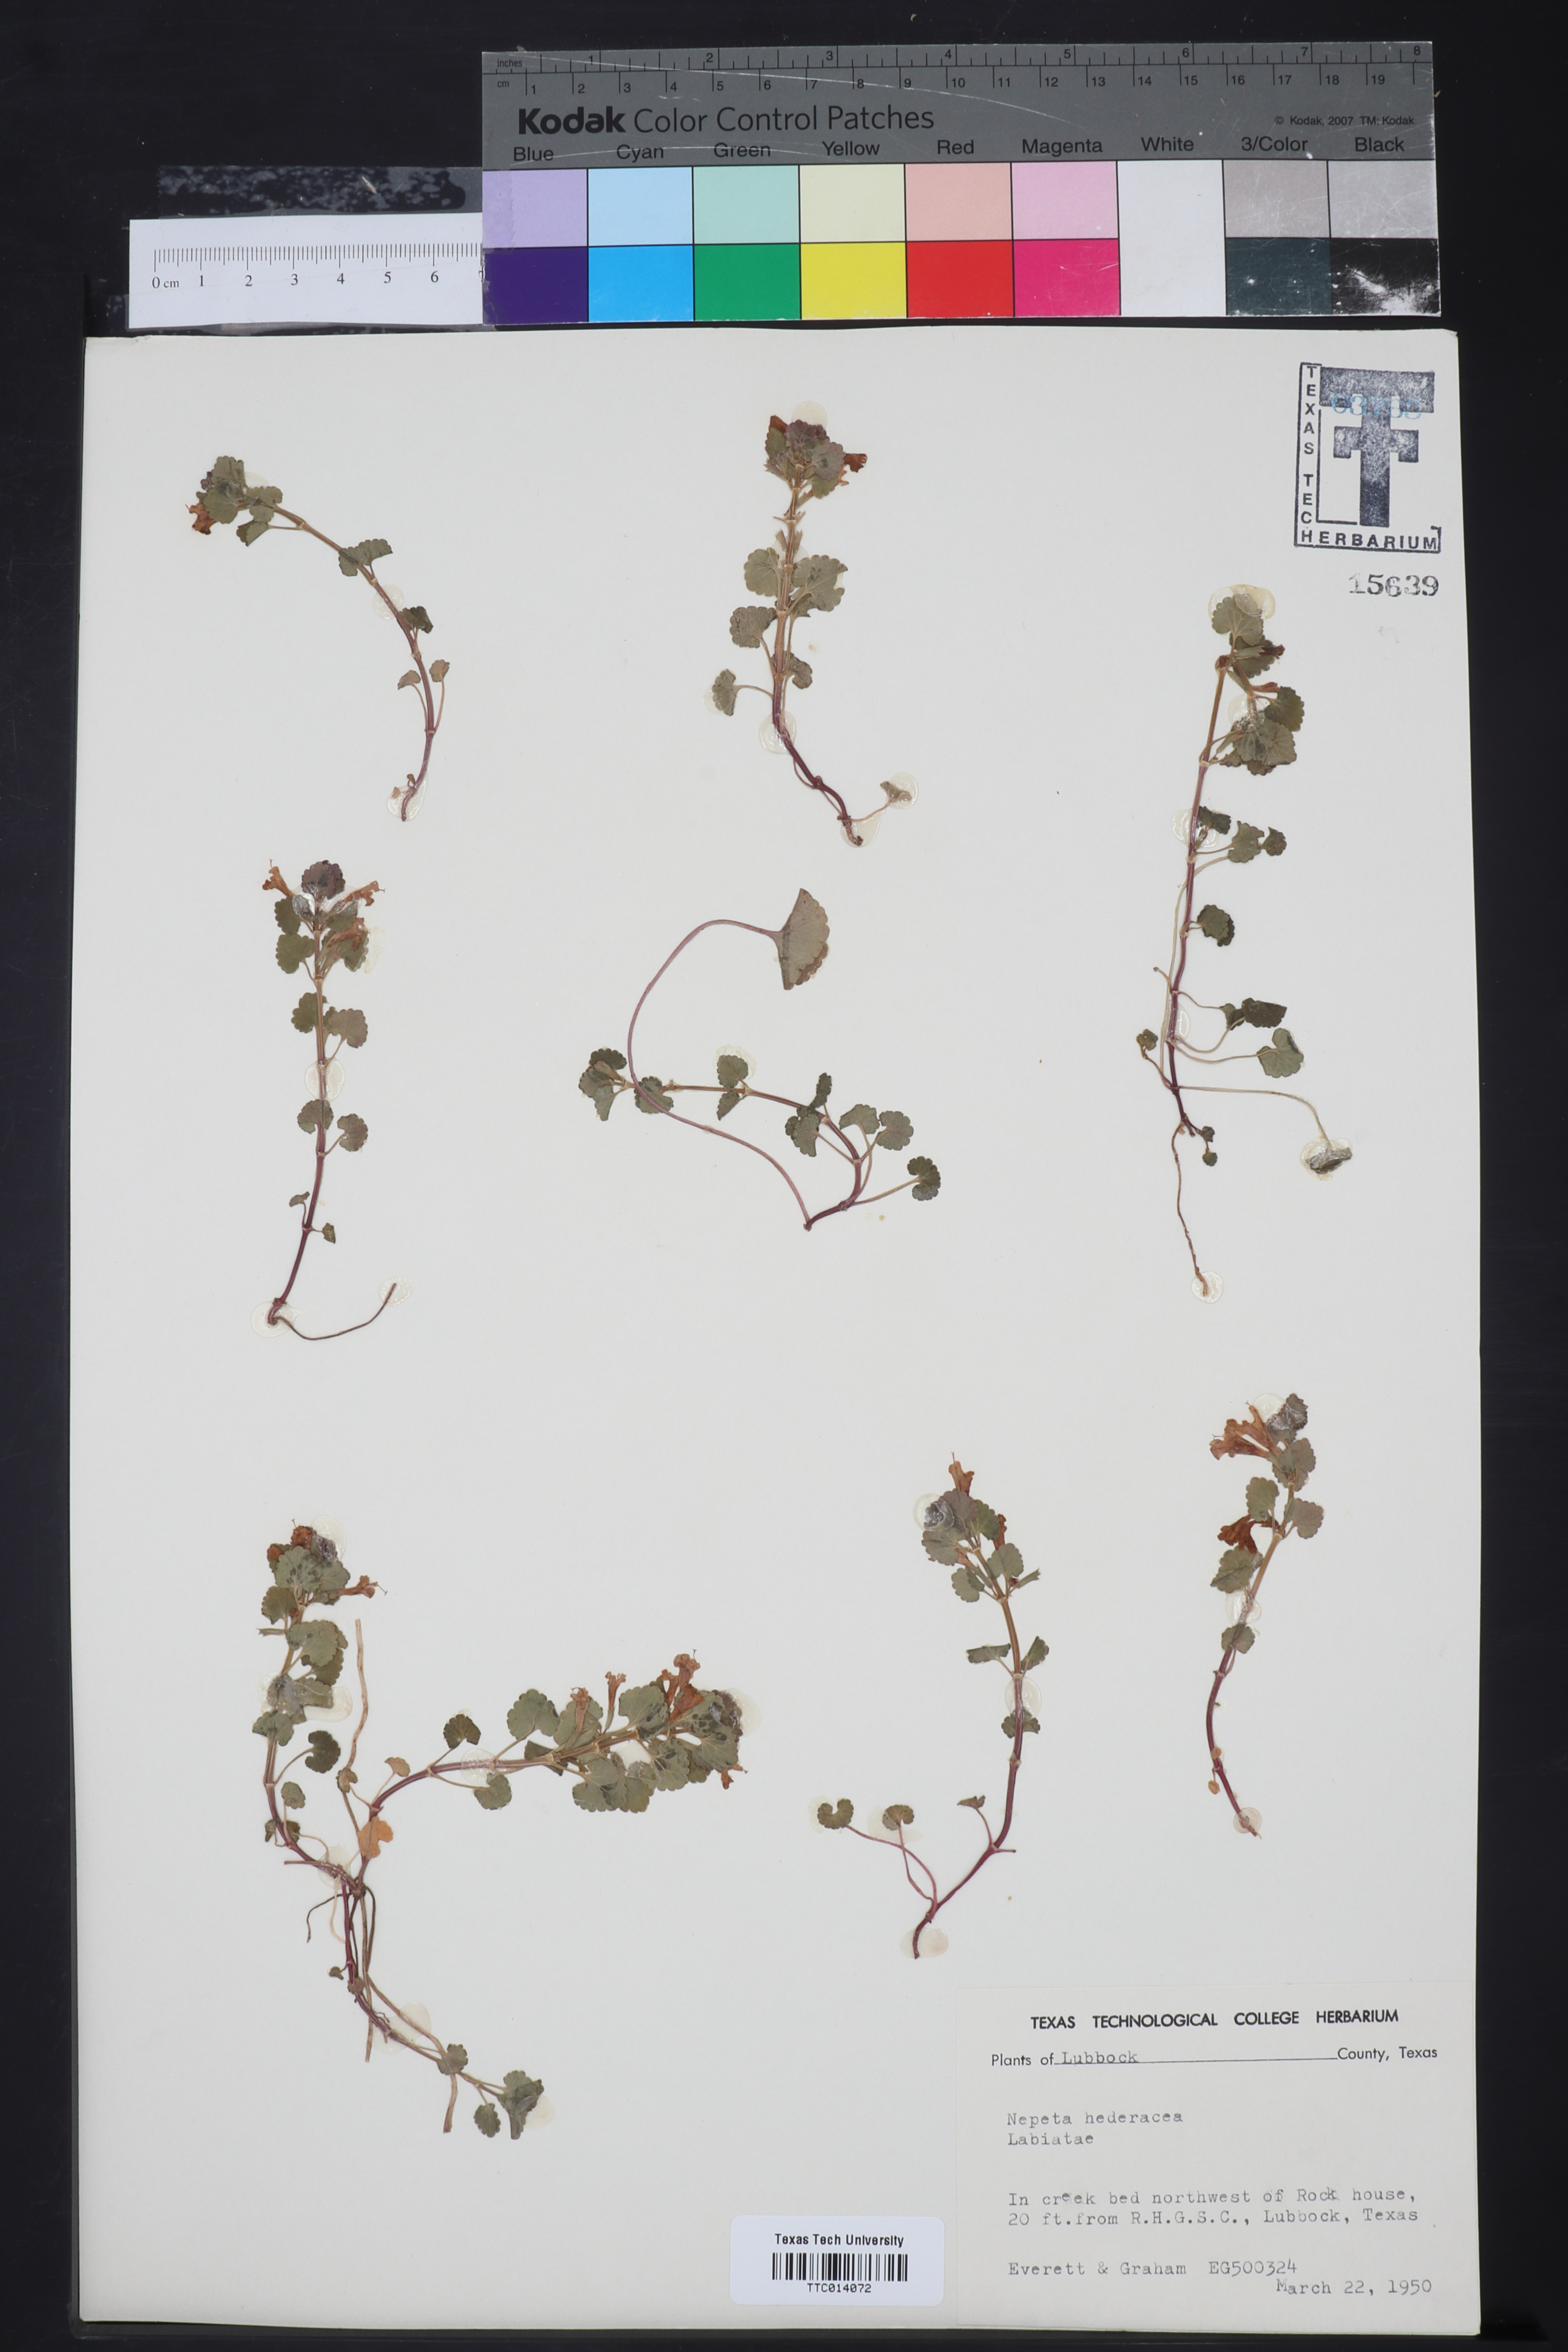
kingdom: Plantae
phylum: Tracheophyta
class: Magnoliopsida
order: Lamiales
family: Lamiaceae
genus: Nepeta
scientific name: Nepeta hederacea
